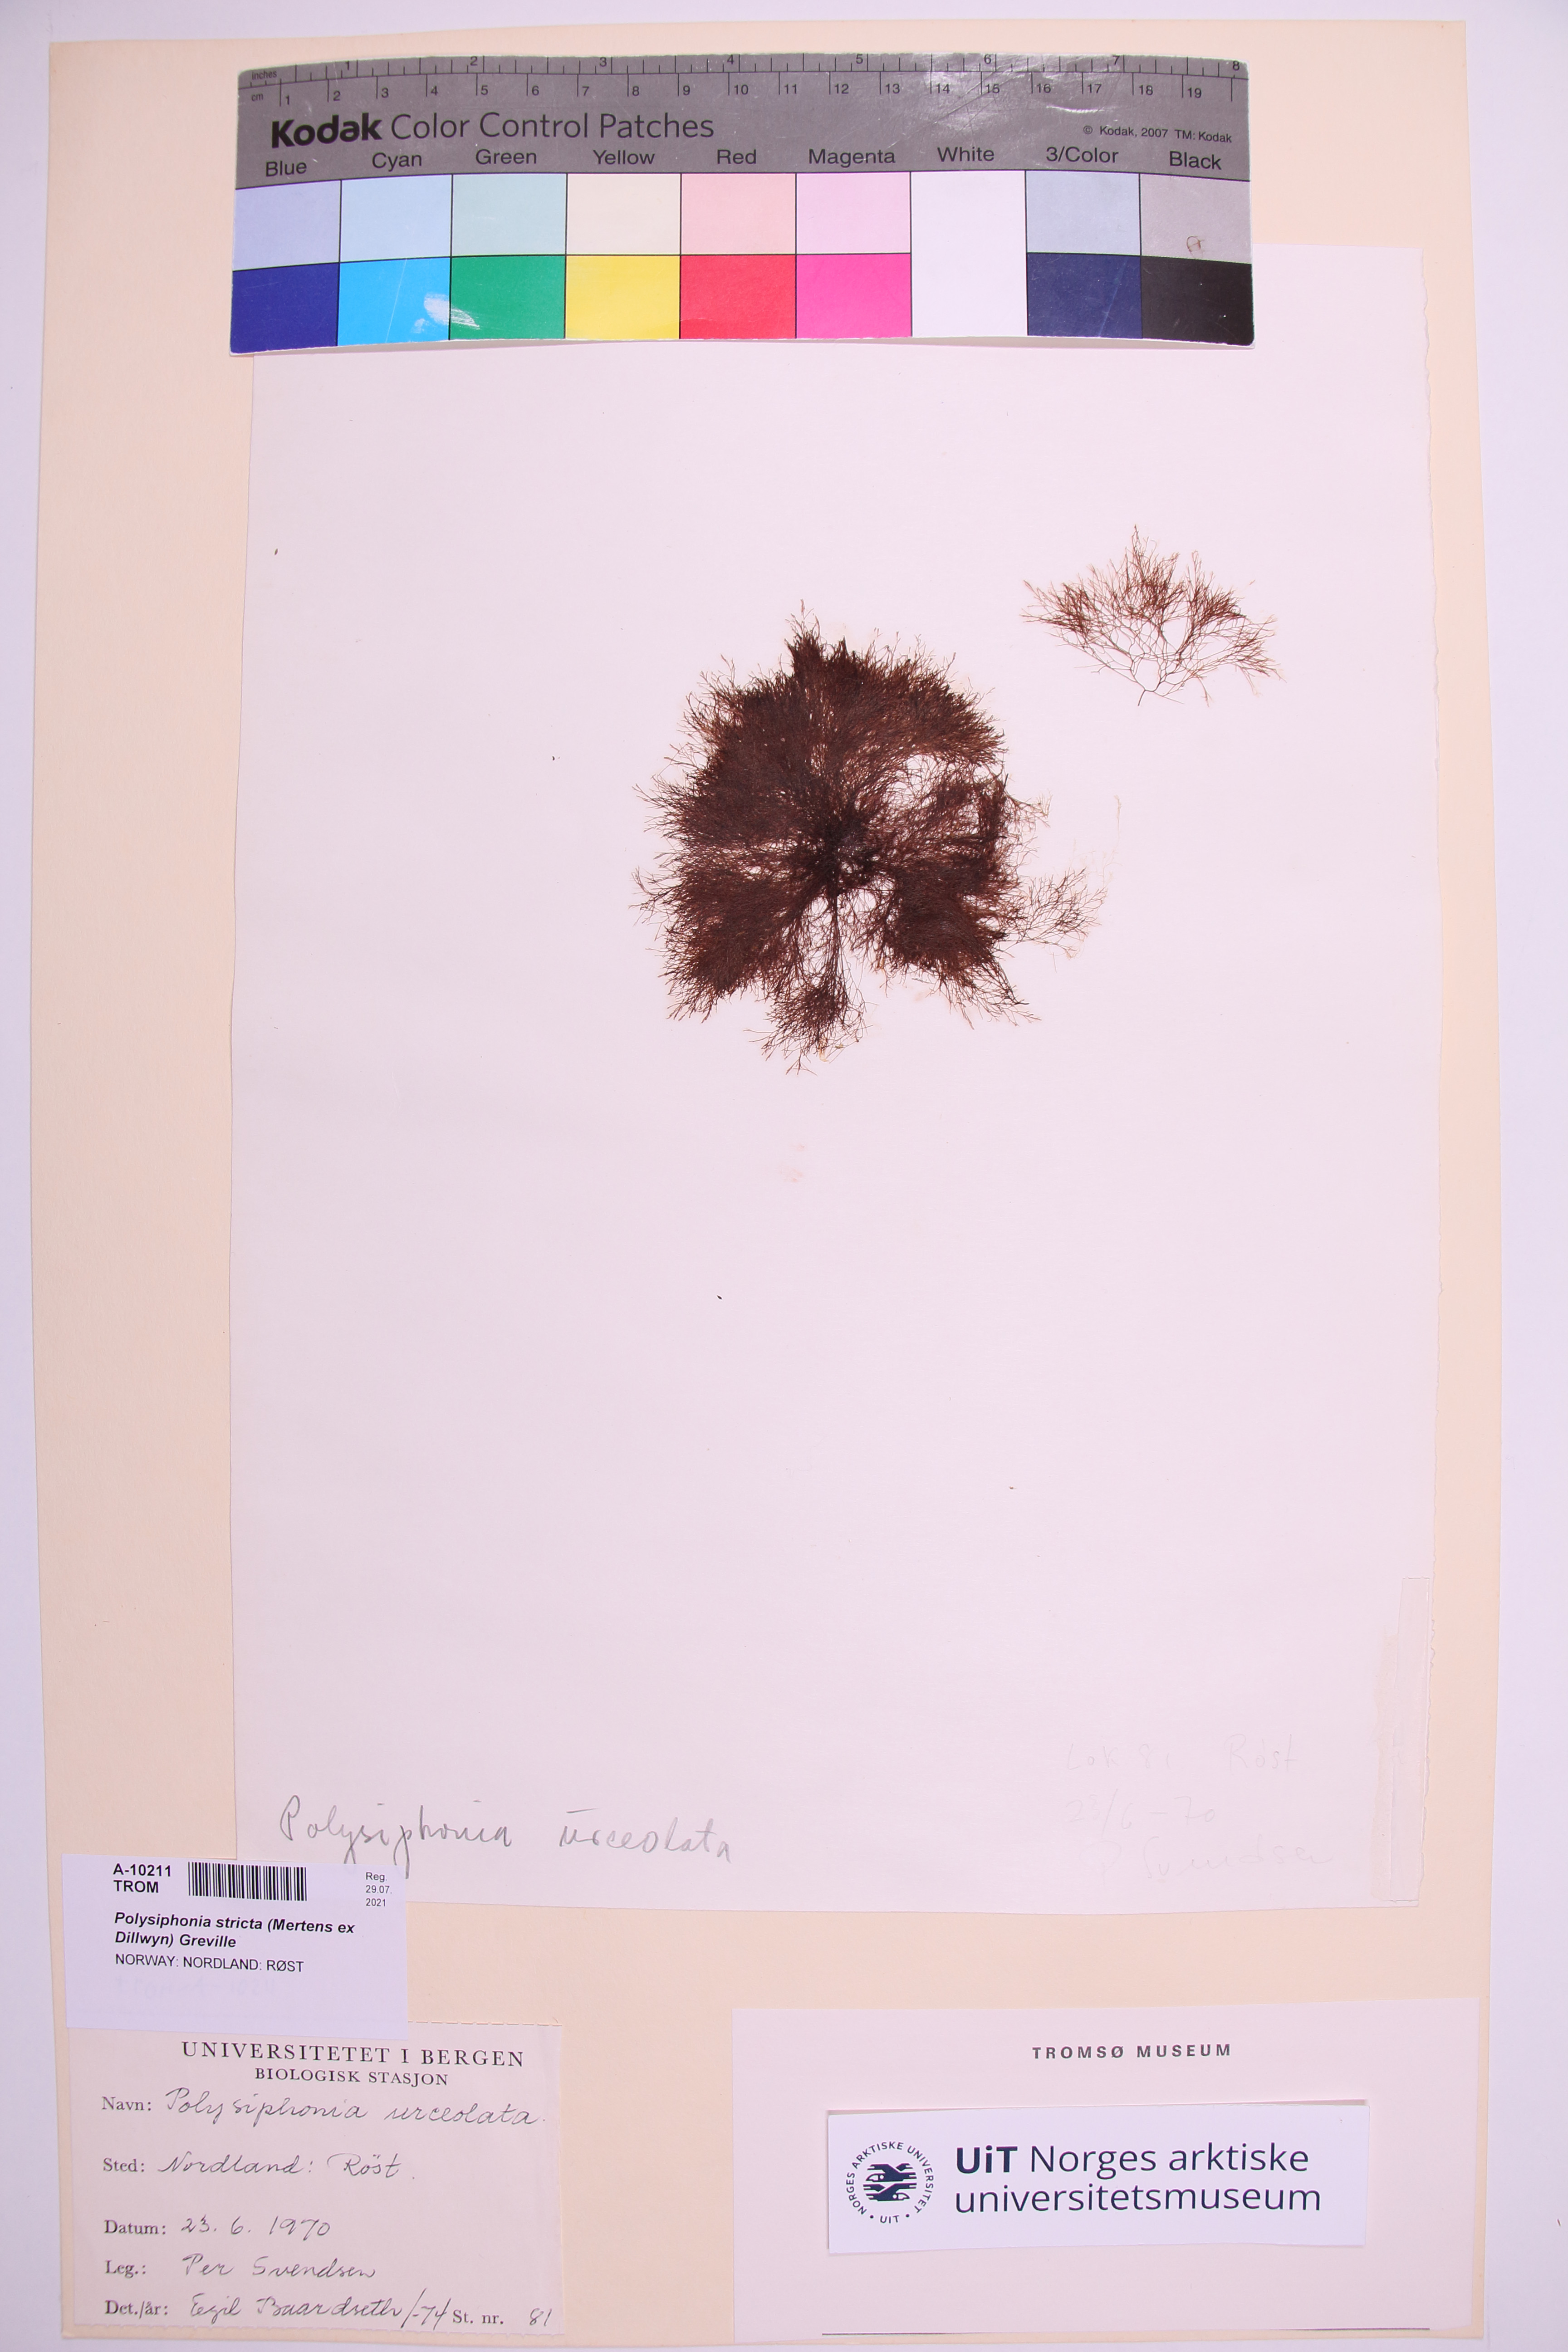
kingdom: Plantae
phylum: Rhodophyta
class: Florideophyceae
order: Ceramiales
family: Rhodomelaceae
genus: Polysiphonia
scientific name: Polysiphonia stricta
